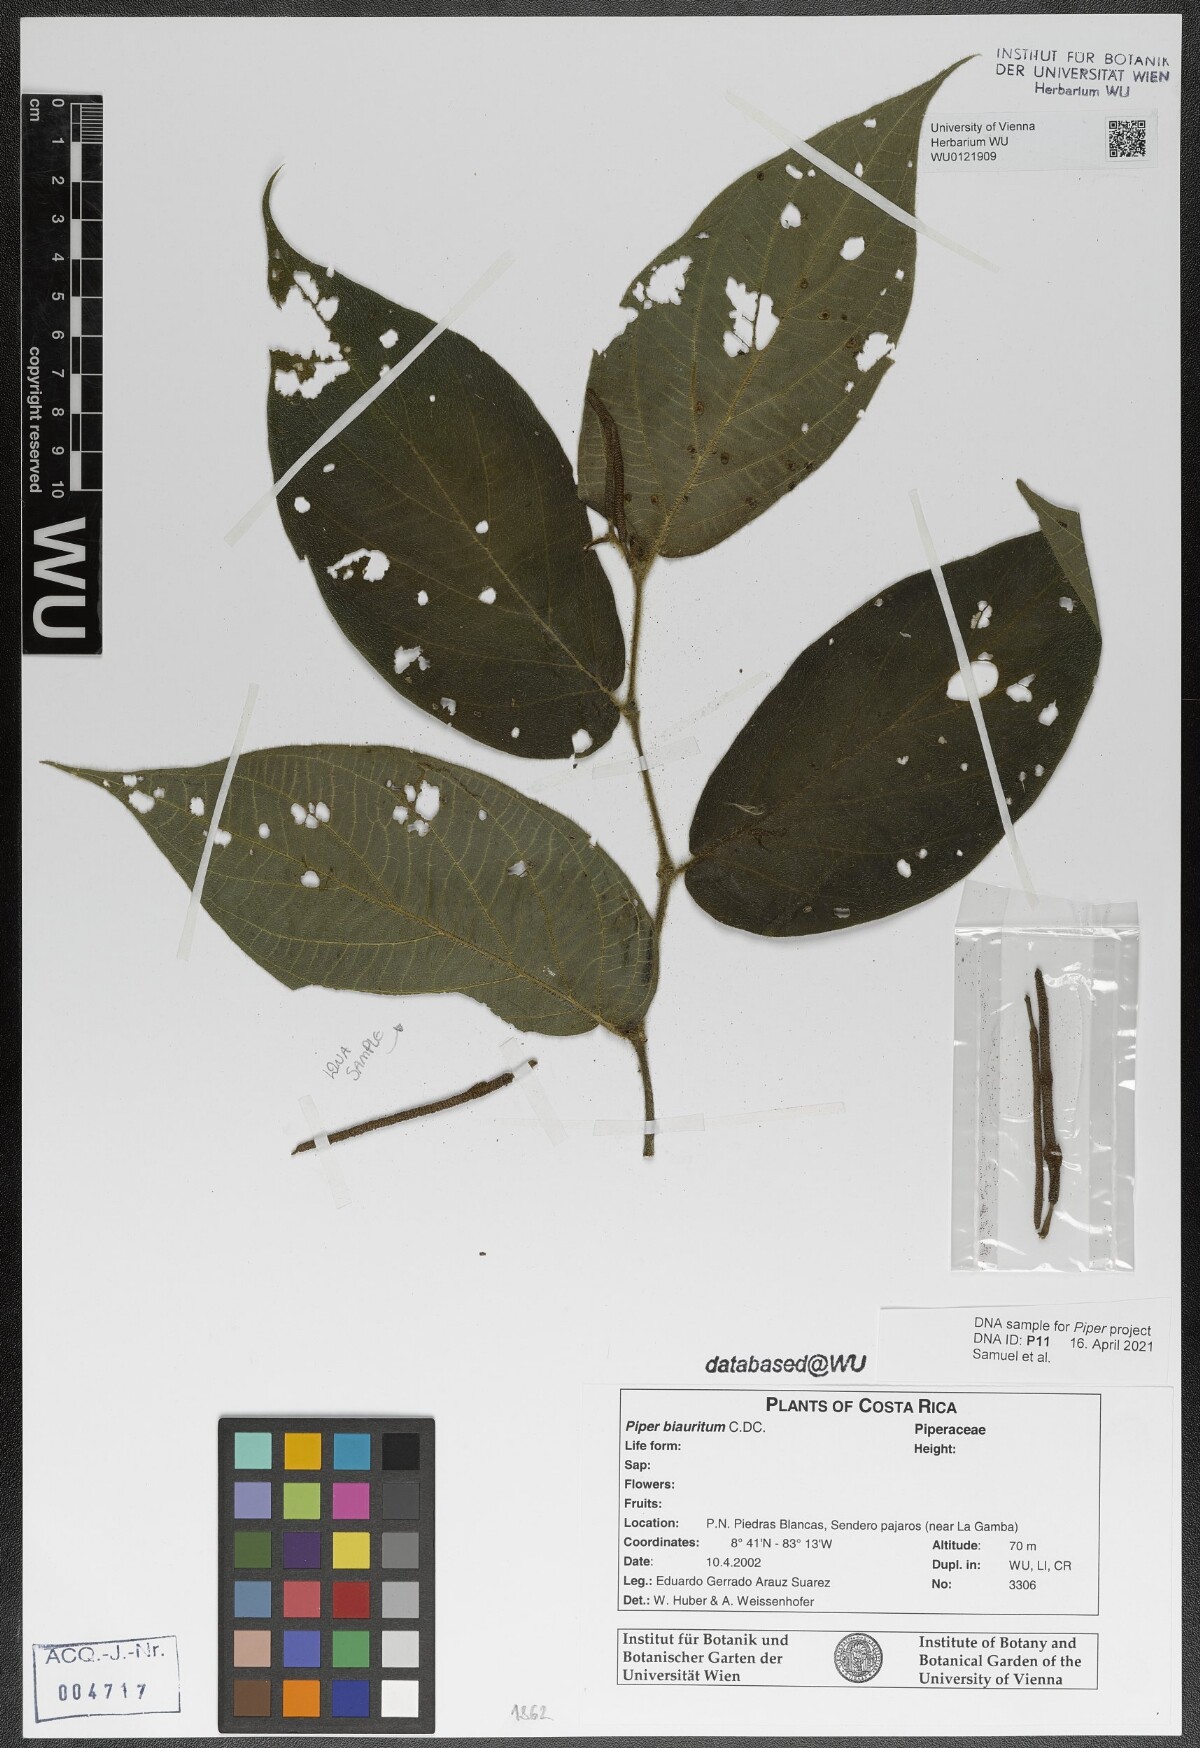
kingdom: Plantae
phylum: Tracheophyta
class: Magnoliopsida
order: Piperales
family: Piperaceae
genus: Piper
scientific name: Piper biauritum
